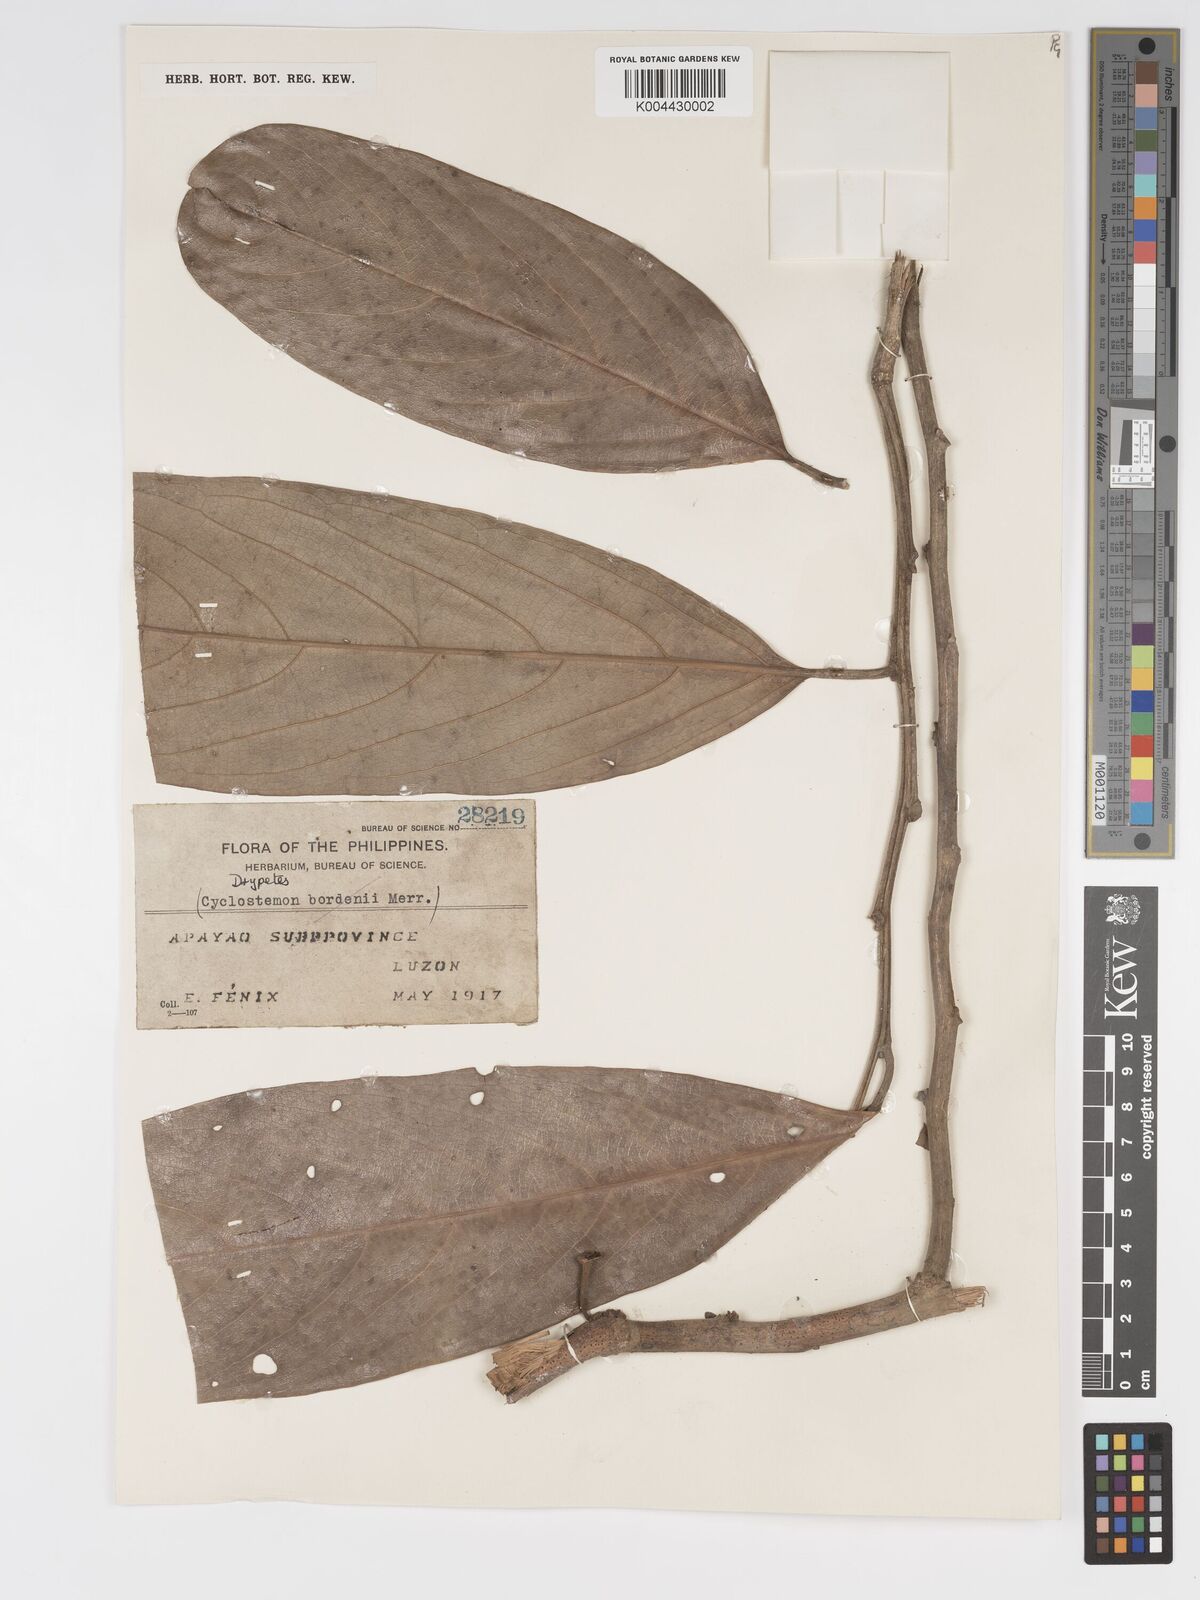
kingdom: Plantae
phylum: Tracheophyta
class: Magnoliopsida
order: Malpighiales
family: Putranjivaceae
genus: Drypetes
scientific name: Drypetes longifolia
